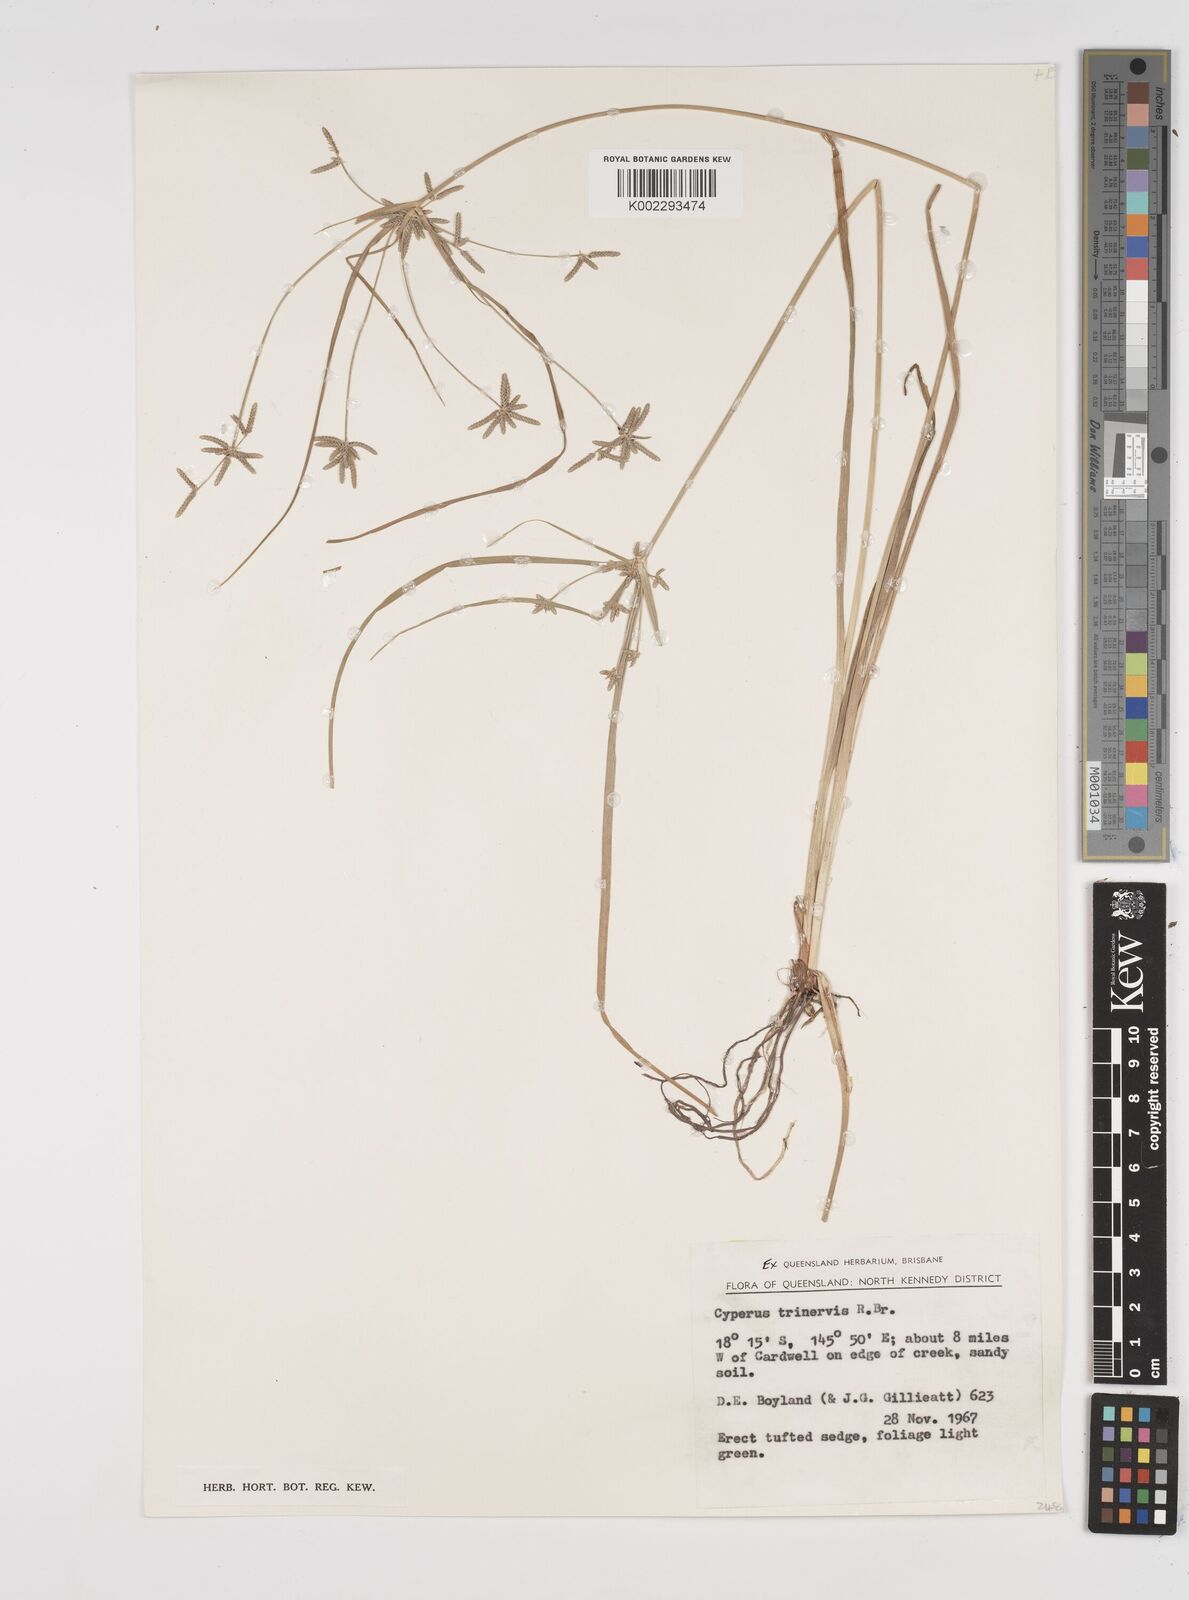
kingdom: Plantae
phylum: Tracheophyta
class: Liliopsida
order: Poales
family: Cyperaceae
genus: Cyperus
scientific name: Cyperus trinervis
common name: Australian flatsedge
